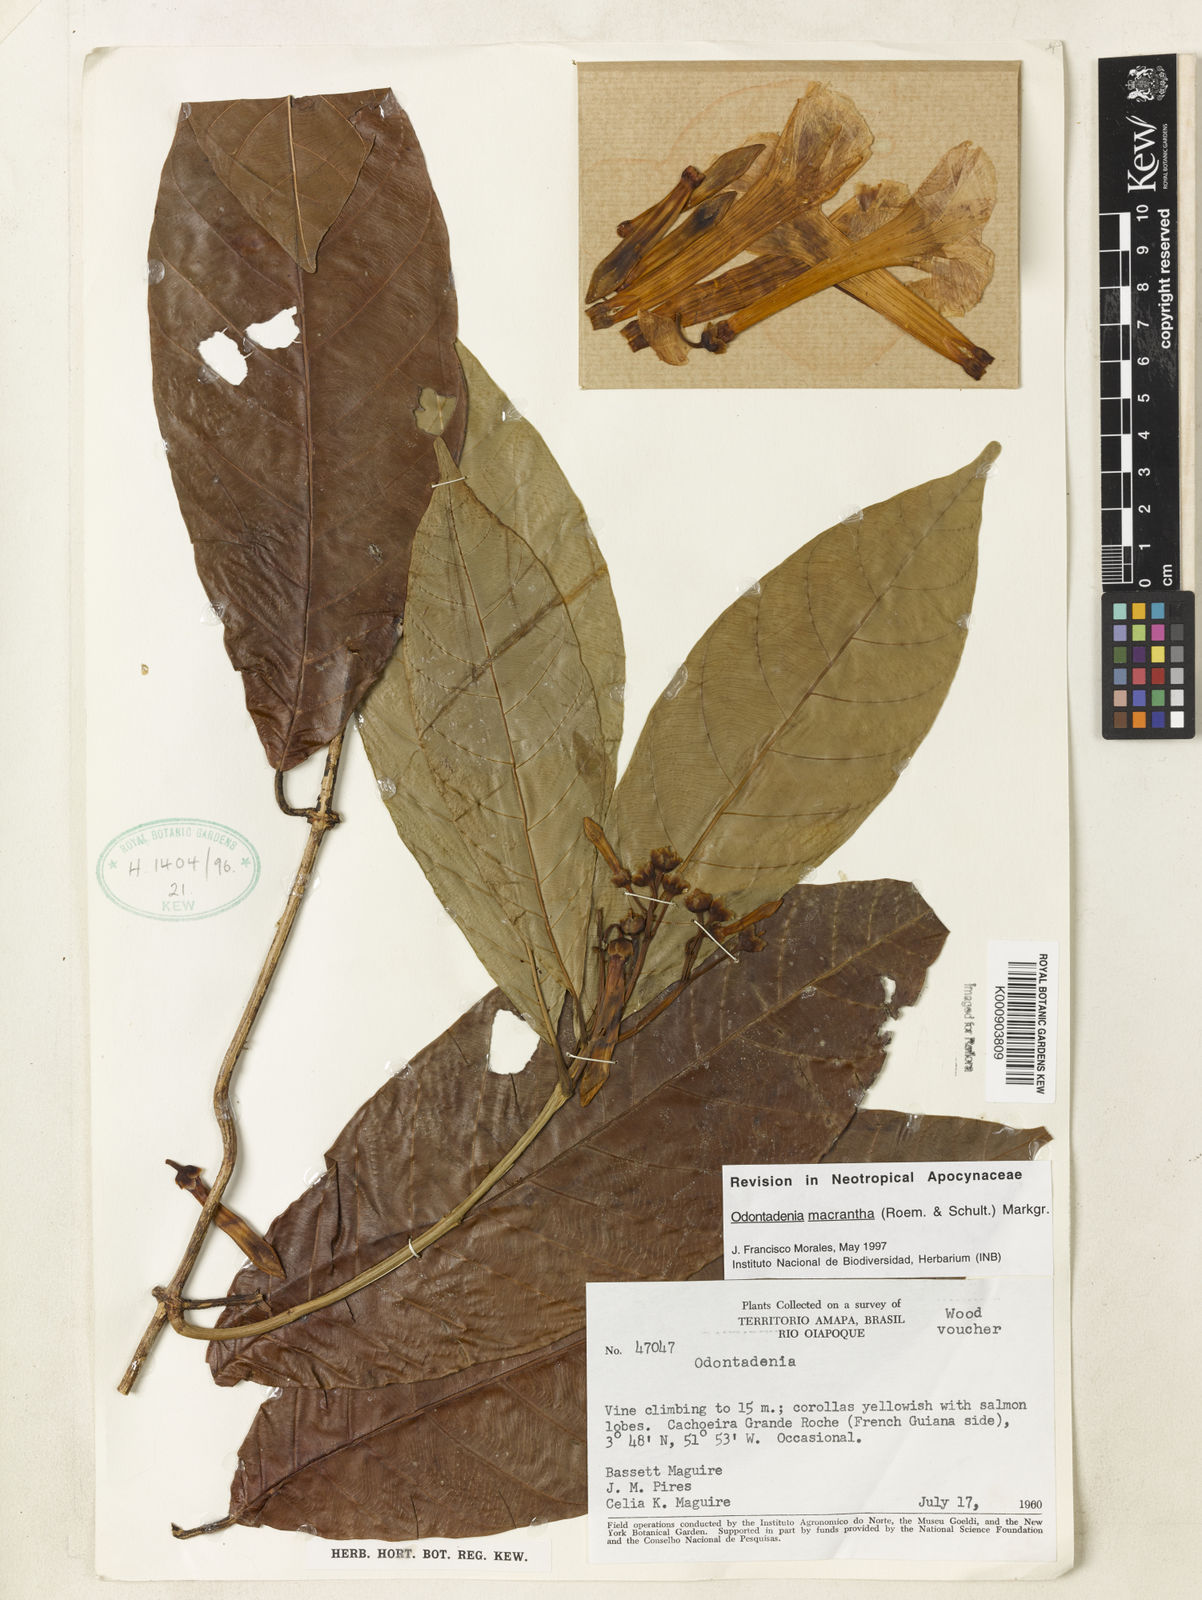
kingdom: Plantae
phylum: Tracheophyta
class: Magnoliopsida
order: Gentianales
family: Apocynaceae
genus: Odontadenia
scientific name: Odontadenia semidigyna
